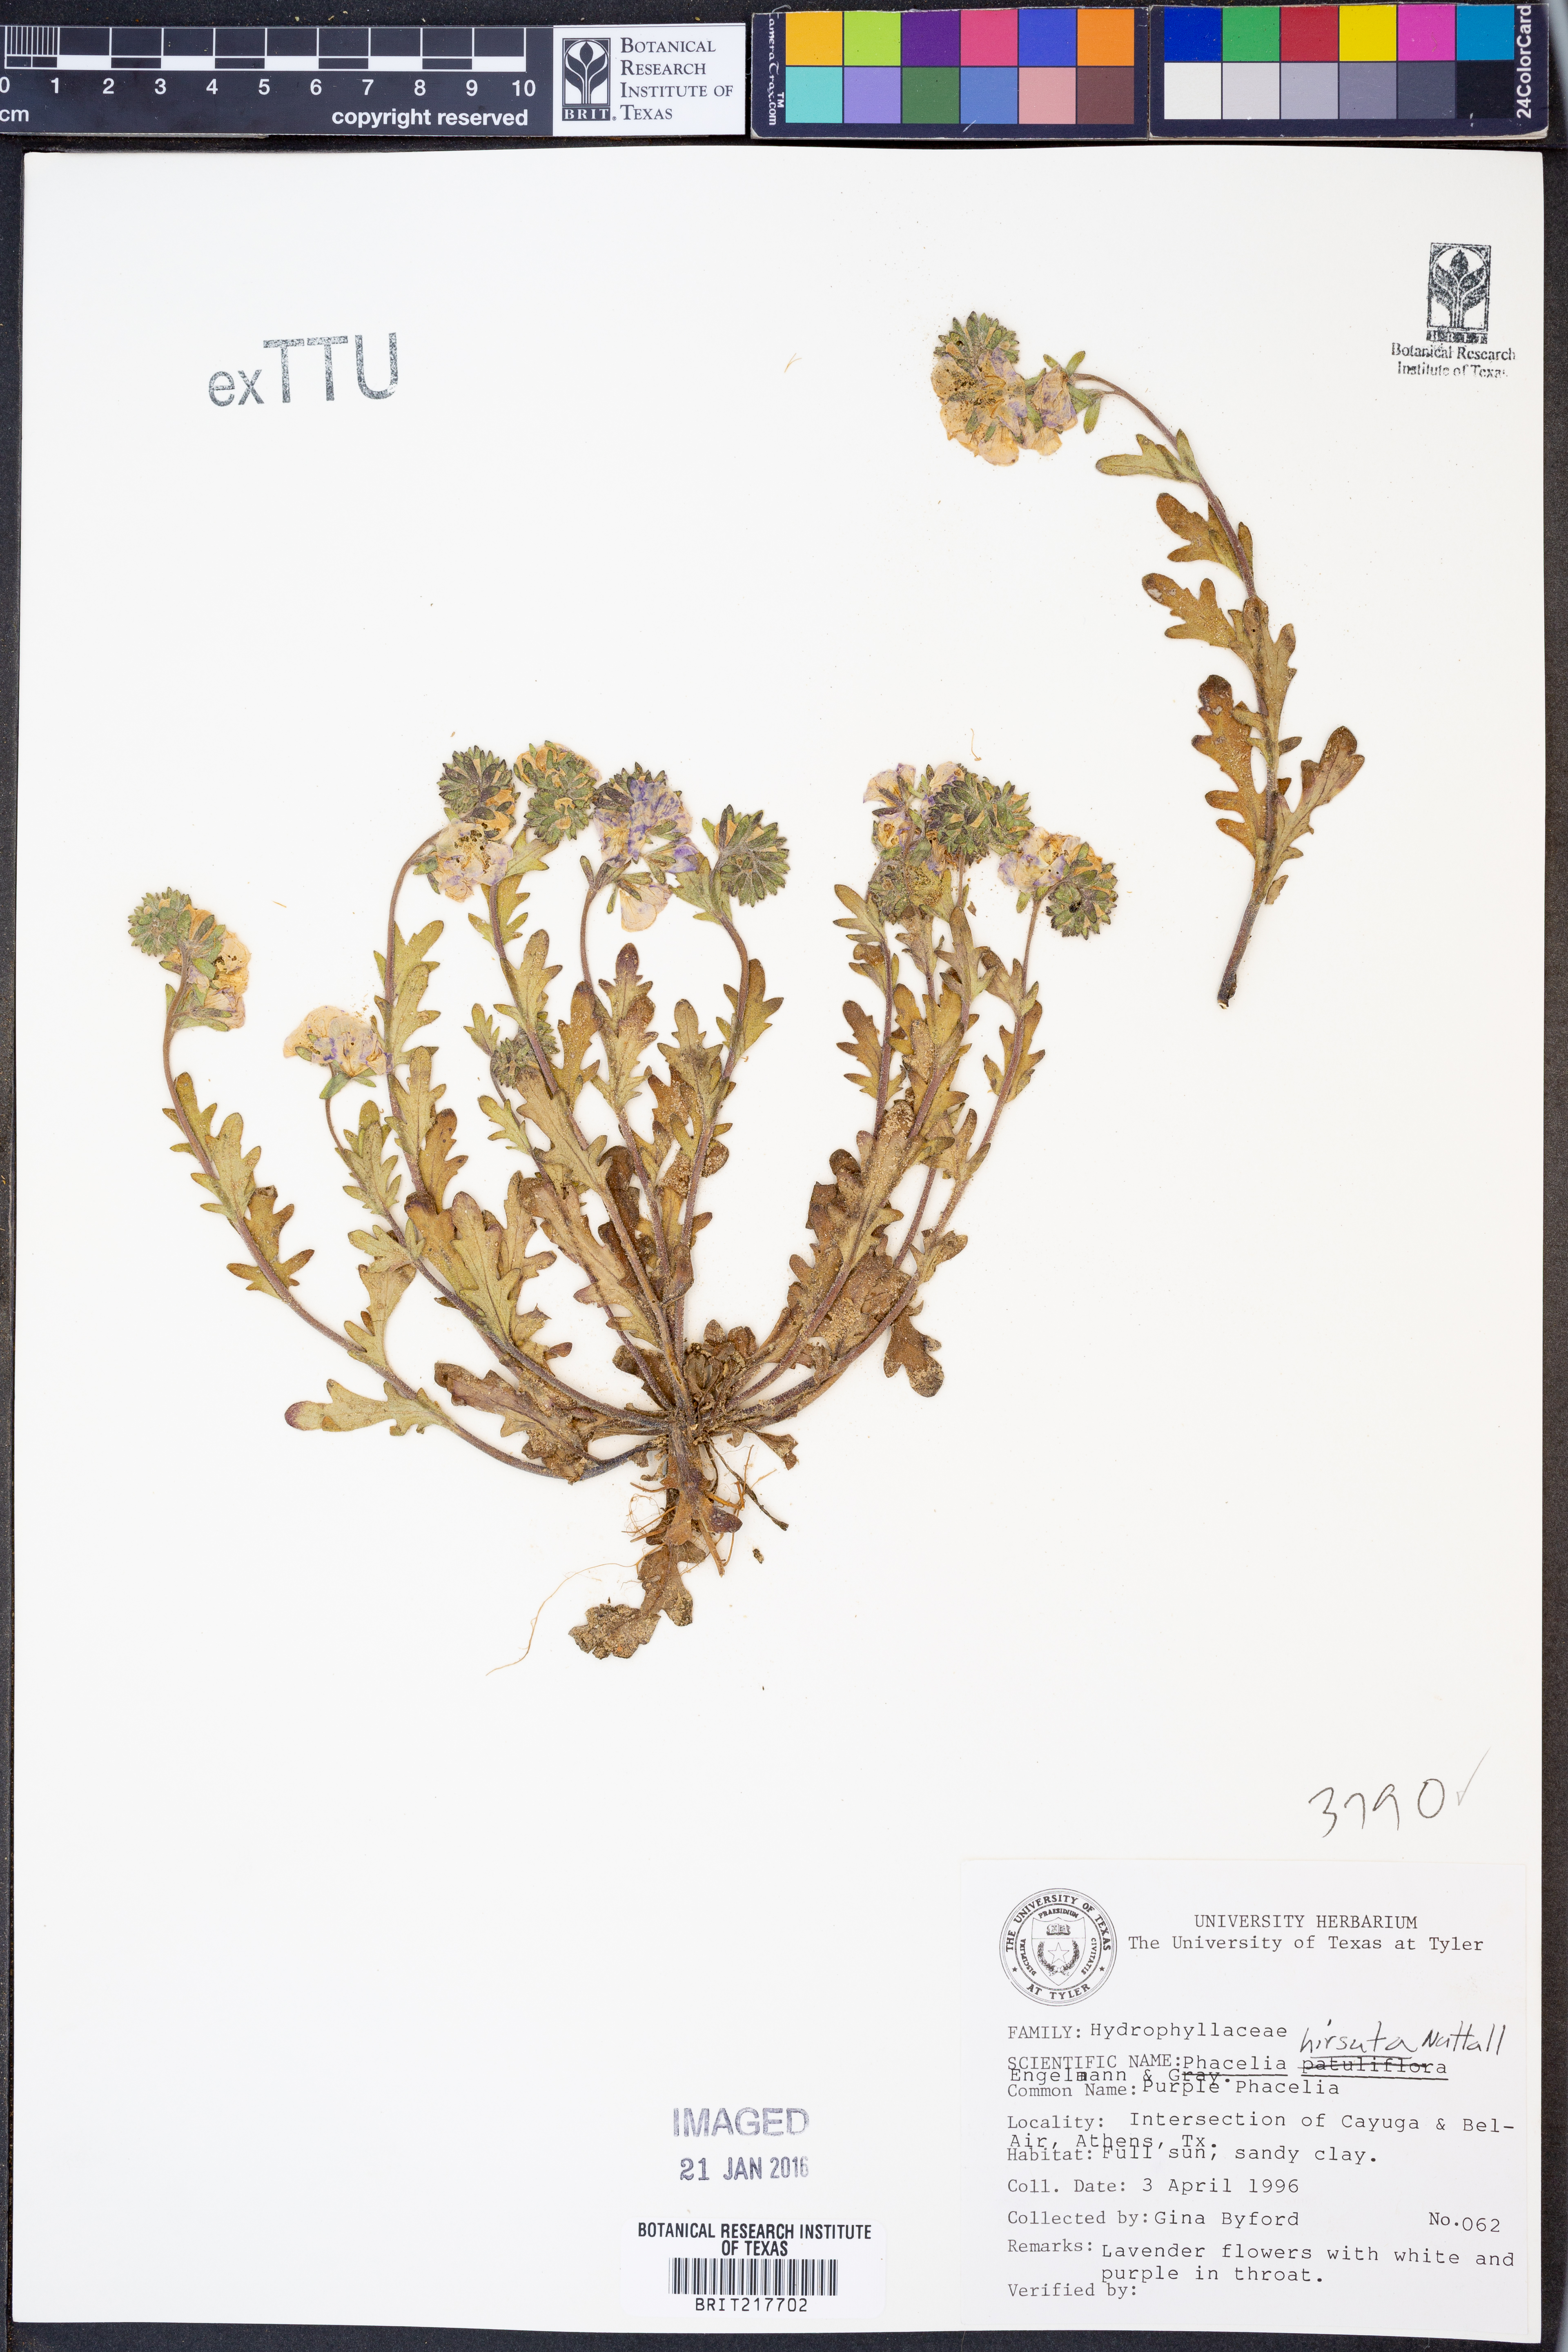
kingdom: Plantae
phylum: Tracheophyta
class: Magnoliopsida
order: Boraginales
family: Hydrophyllaceae
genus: Phacelia
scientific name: Phacelia hirsuta
